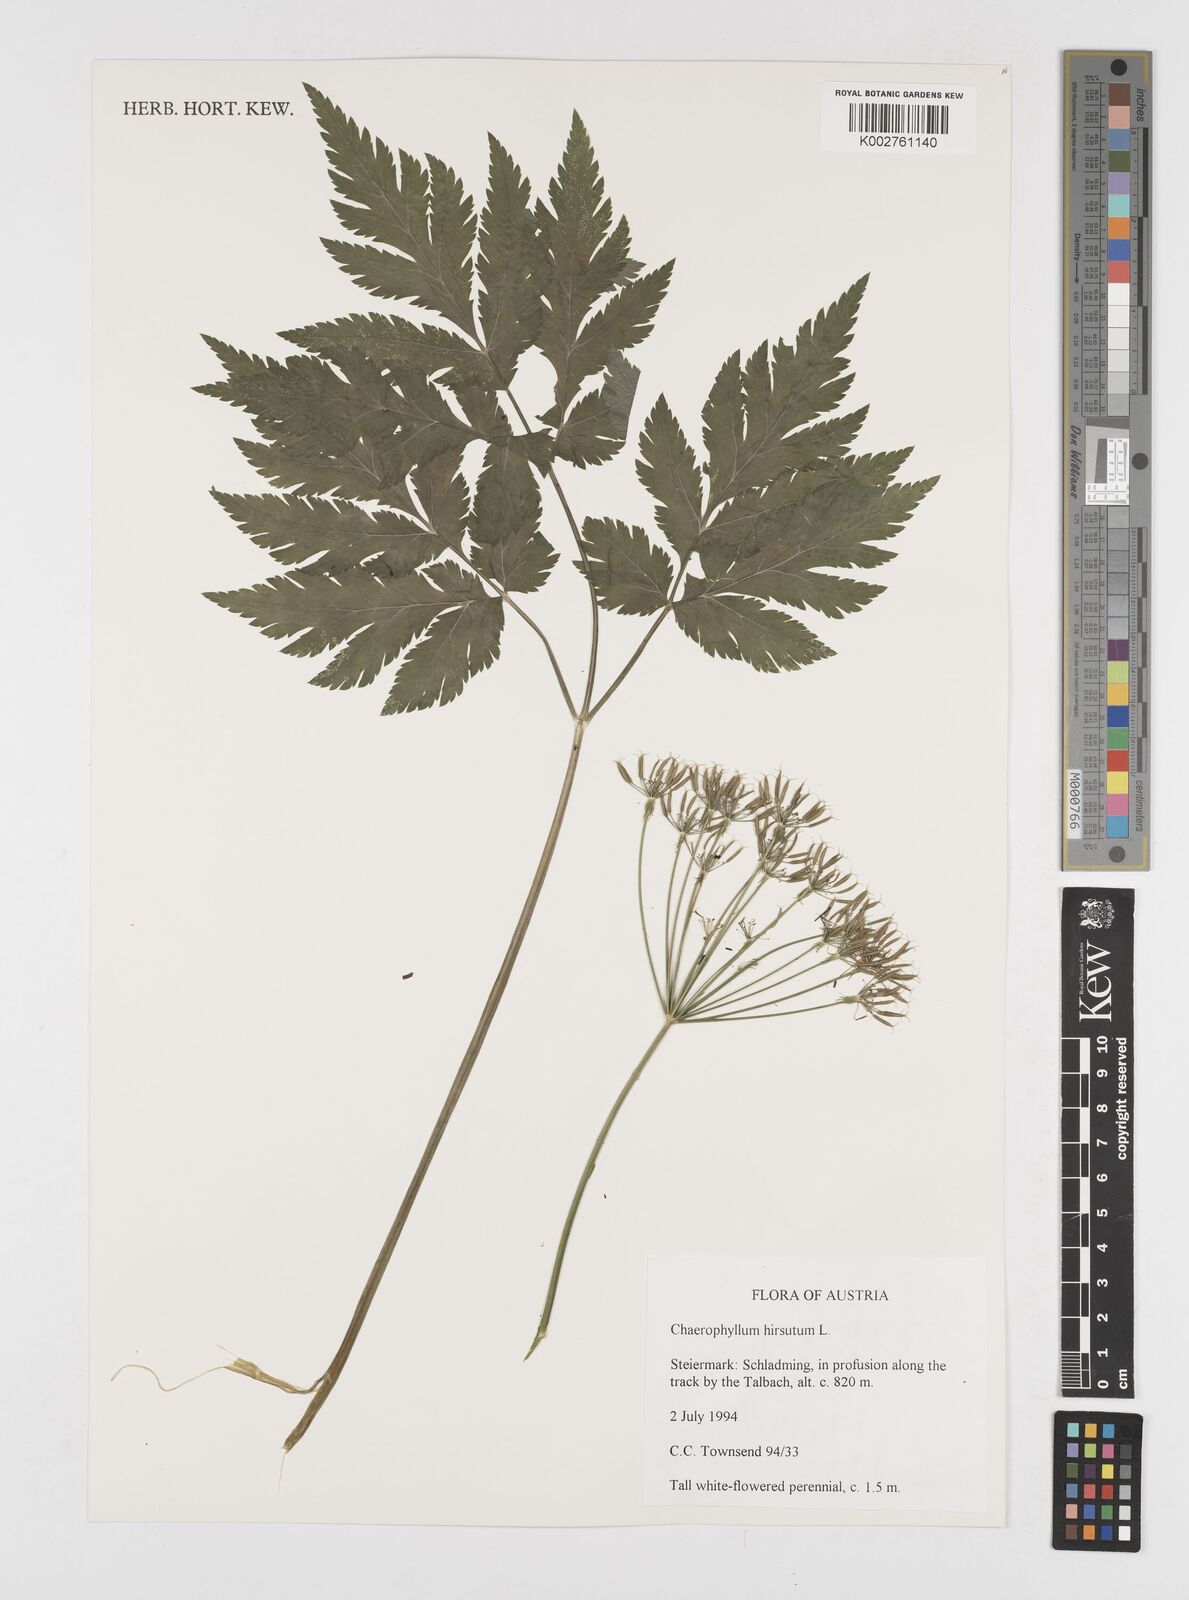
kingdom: Plantae
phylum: Tracheophyta
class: Magnoliopsida
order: Apiales
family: Apiaceae
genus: Chaerophyllum
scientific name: Chaerophyllum hirsutum
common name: Hairy chervil
